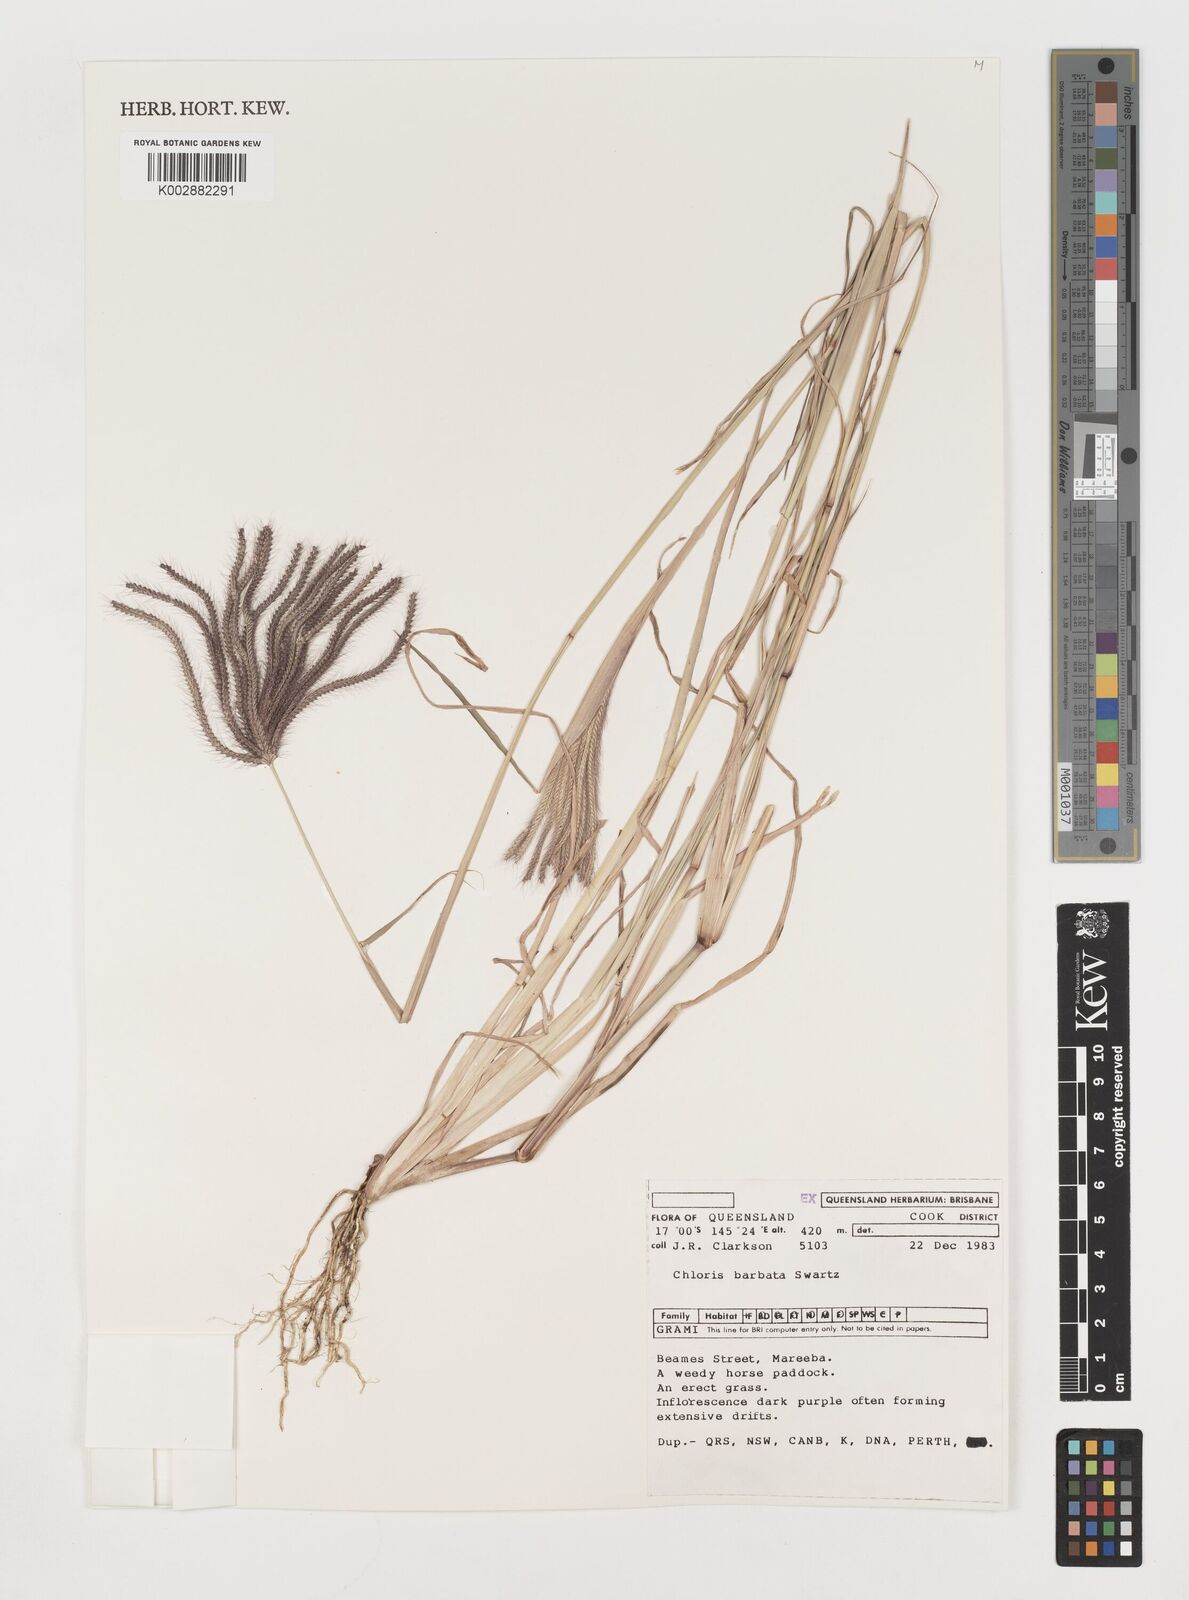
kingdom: Plantae
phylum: Tracheophyta
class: Liliopsida
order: Poales
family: Poaceae
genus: Chloris
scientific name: Chloris barbata
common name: Swollen fingergrass
